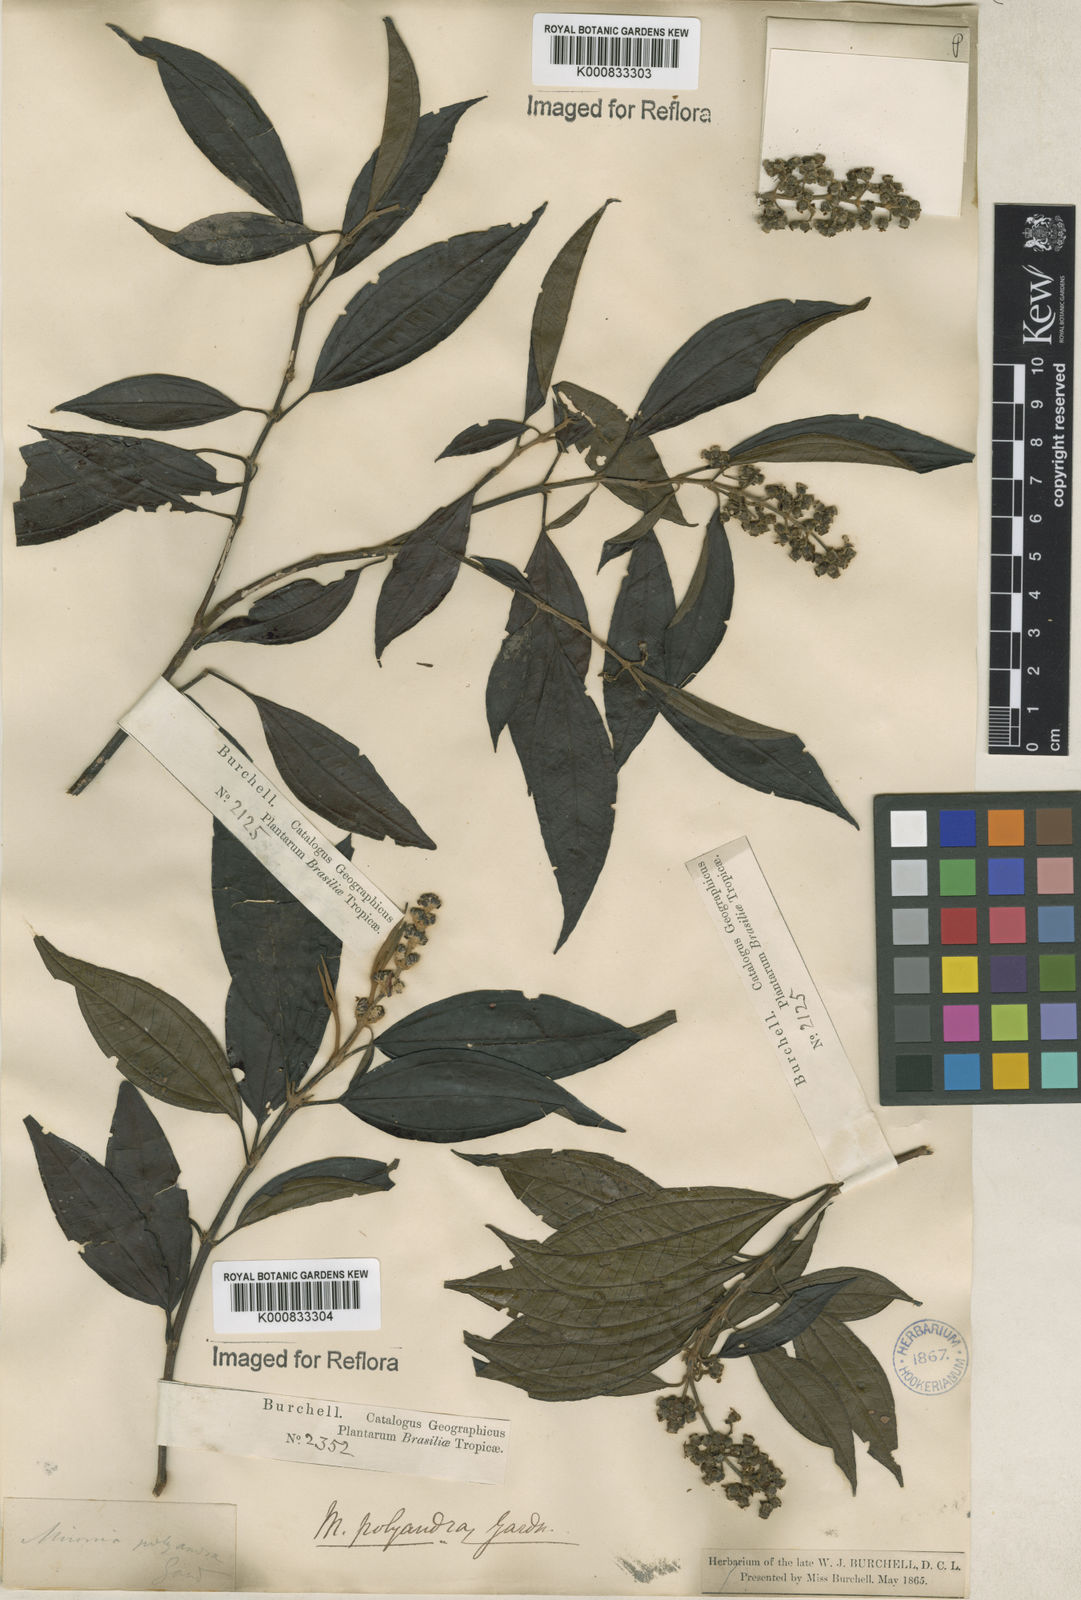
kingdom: Plantae
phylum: Tracheophyta
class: Magnoliopsida
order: Myrtales
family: Melastomataceae
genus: Miconia
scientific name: Miconia polyandra
